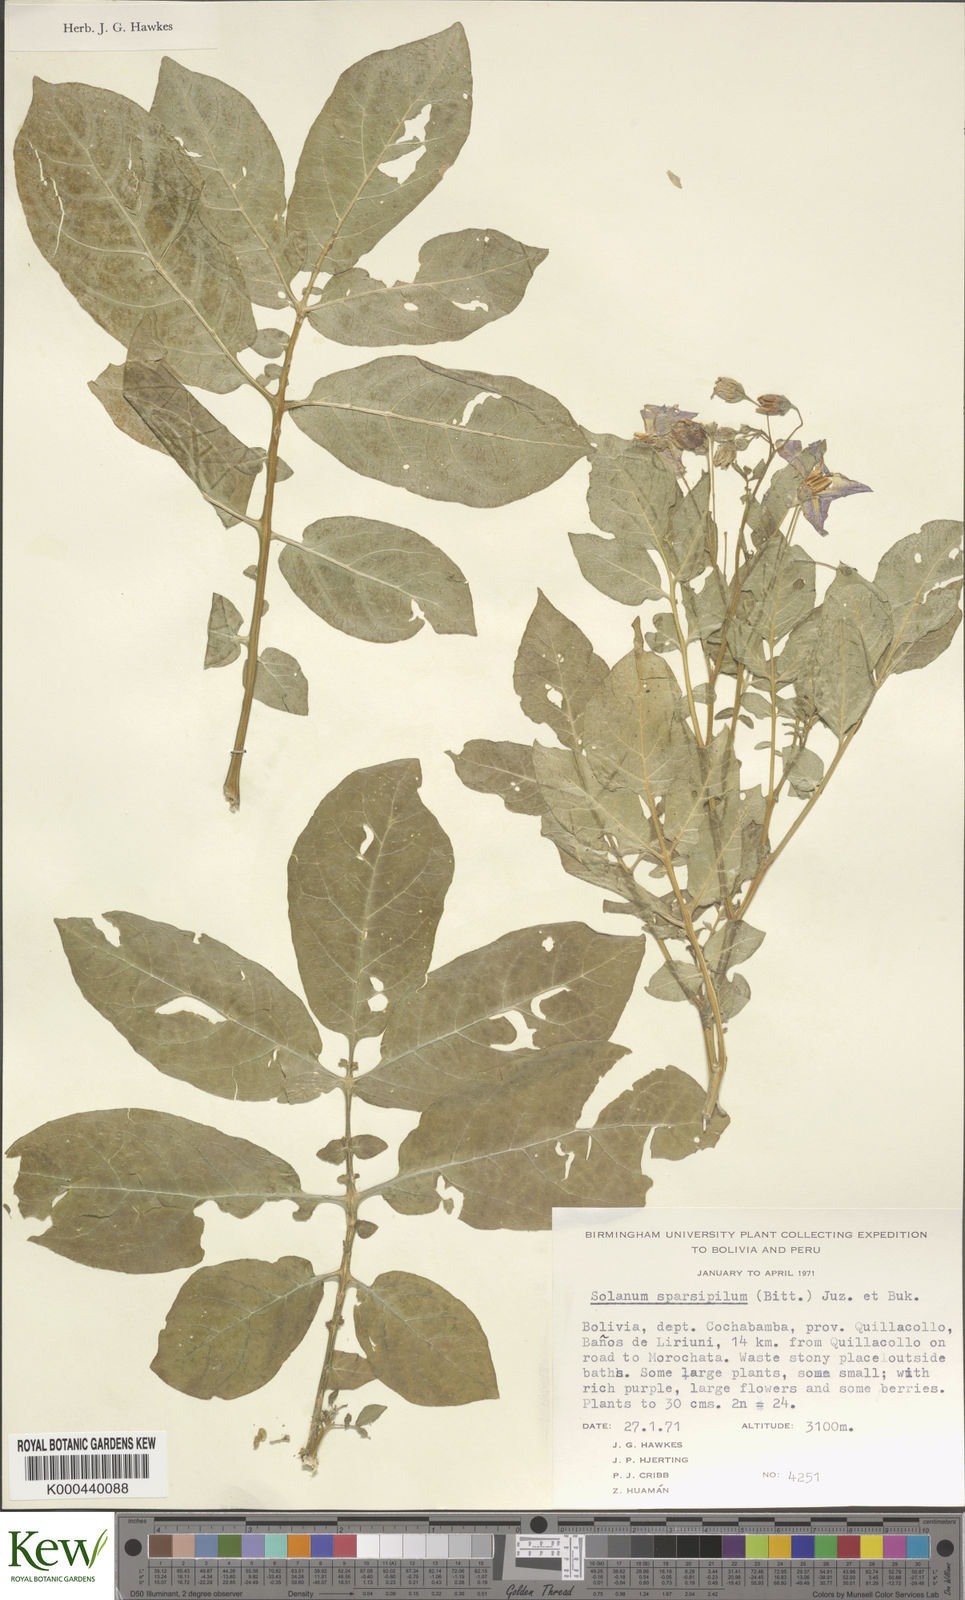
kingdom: Plantae
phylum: Tracheophyta
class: Magnoliopsida
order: Solanales
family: Solanaceae
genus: Solanum
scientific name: Solanum brevicaule
